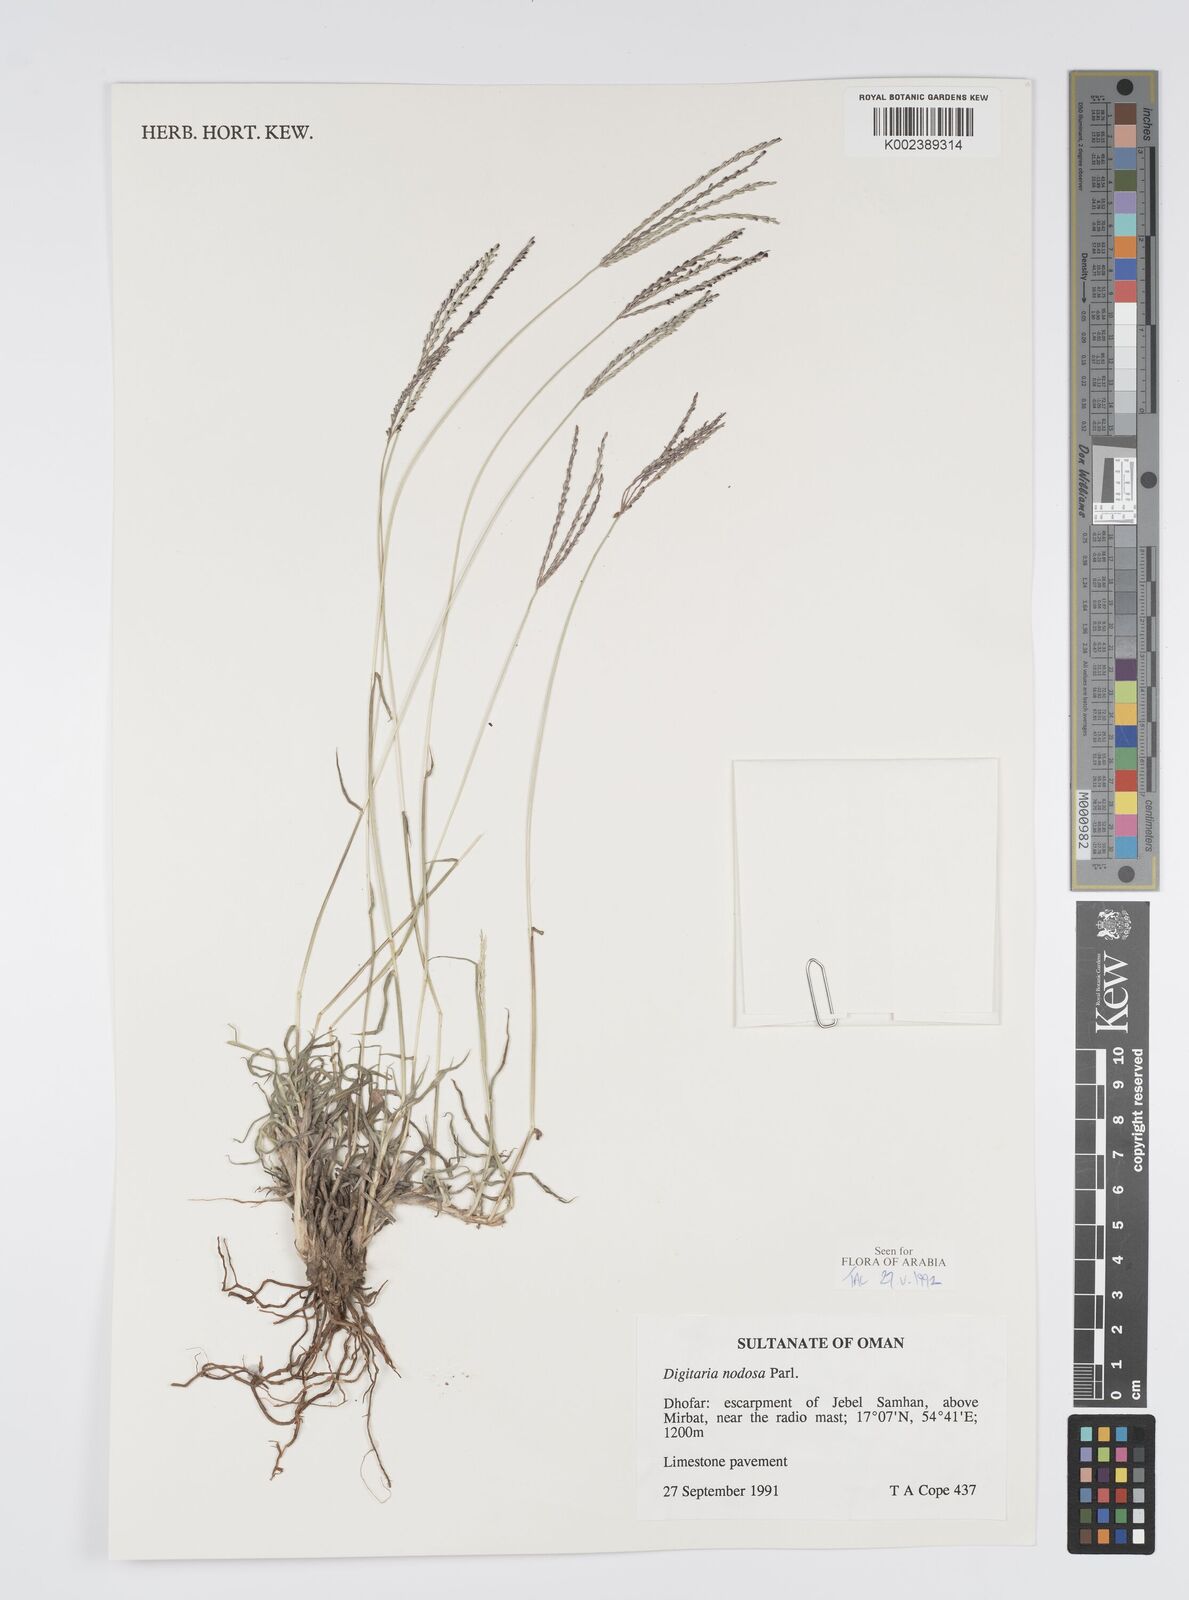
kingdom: Plantae
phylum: Tracheophyta
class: Liliopsida
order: Poales
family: Poaceae
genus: Digitaria
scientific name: Digitaria nodosa
